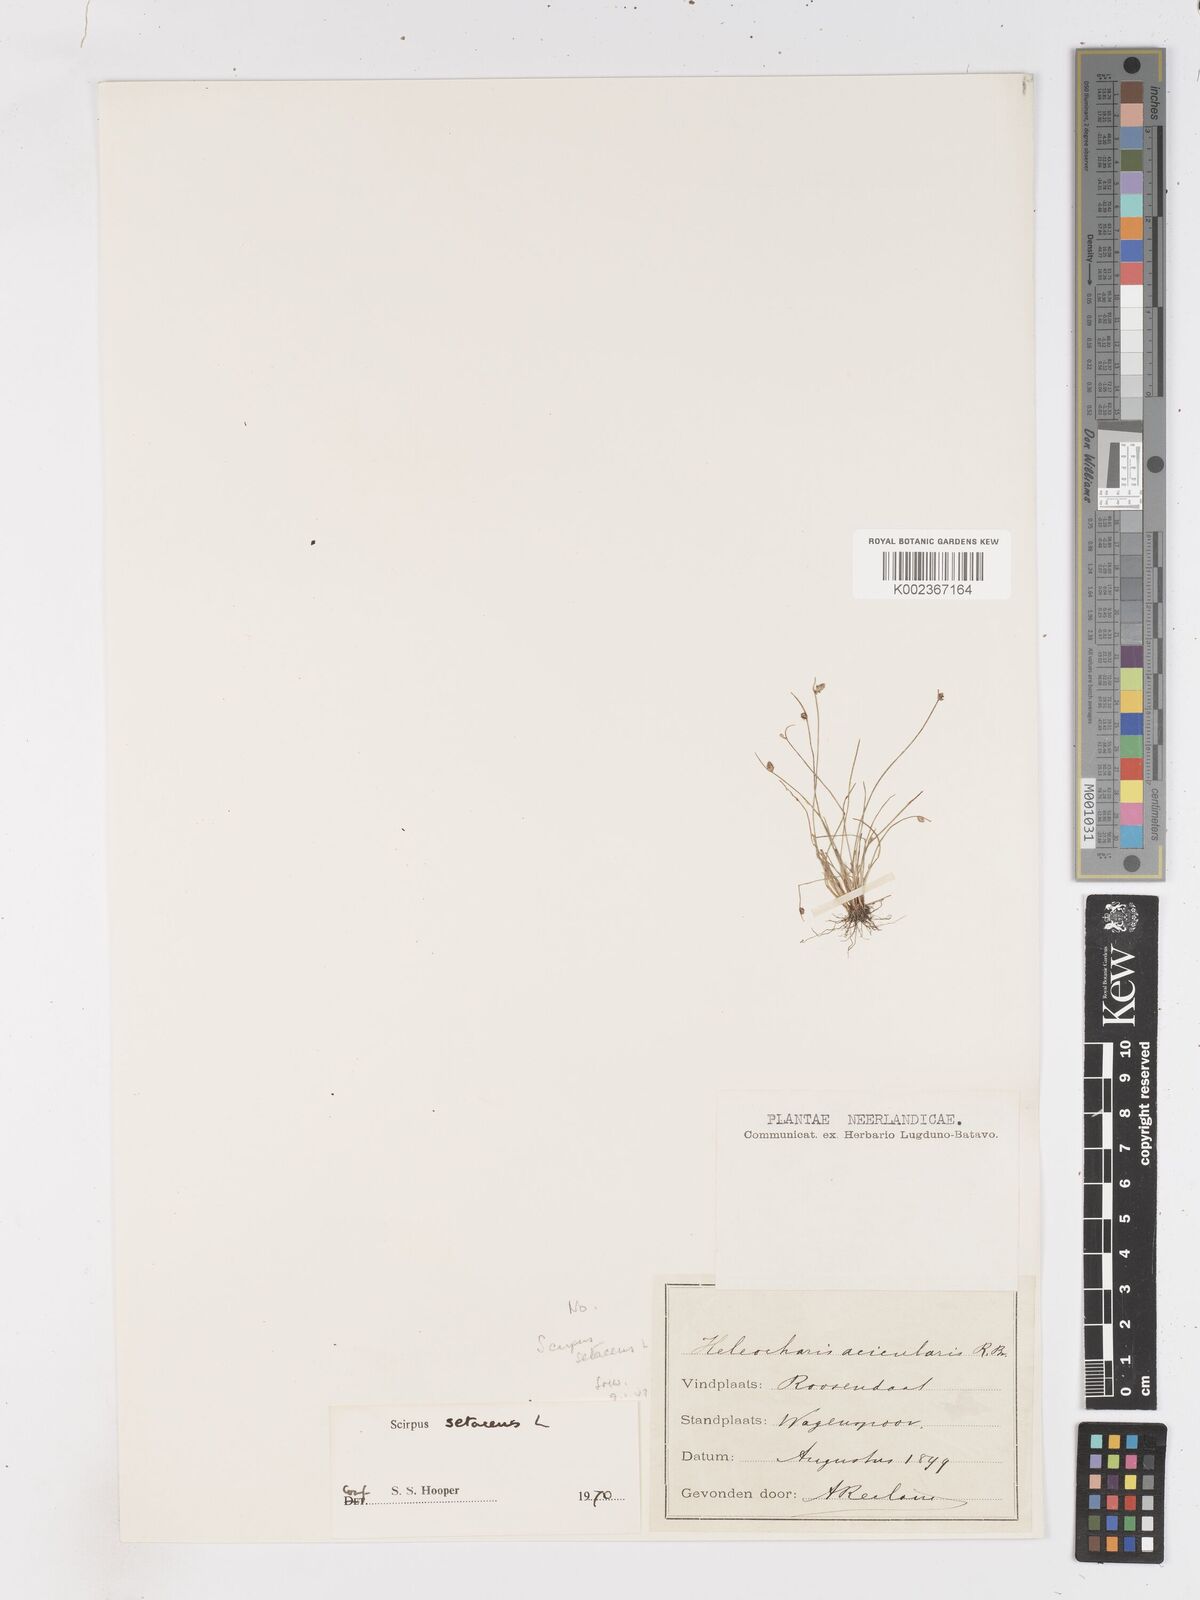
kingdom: Plantae
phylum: Tracheophyta
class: Liliopsida
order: Poales
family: Cyperaceae
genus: Isolepis
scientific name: Isolepis setacea
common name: Bristle club-rush
